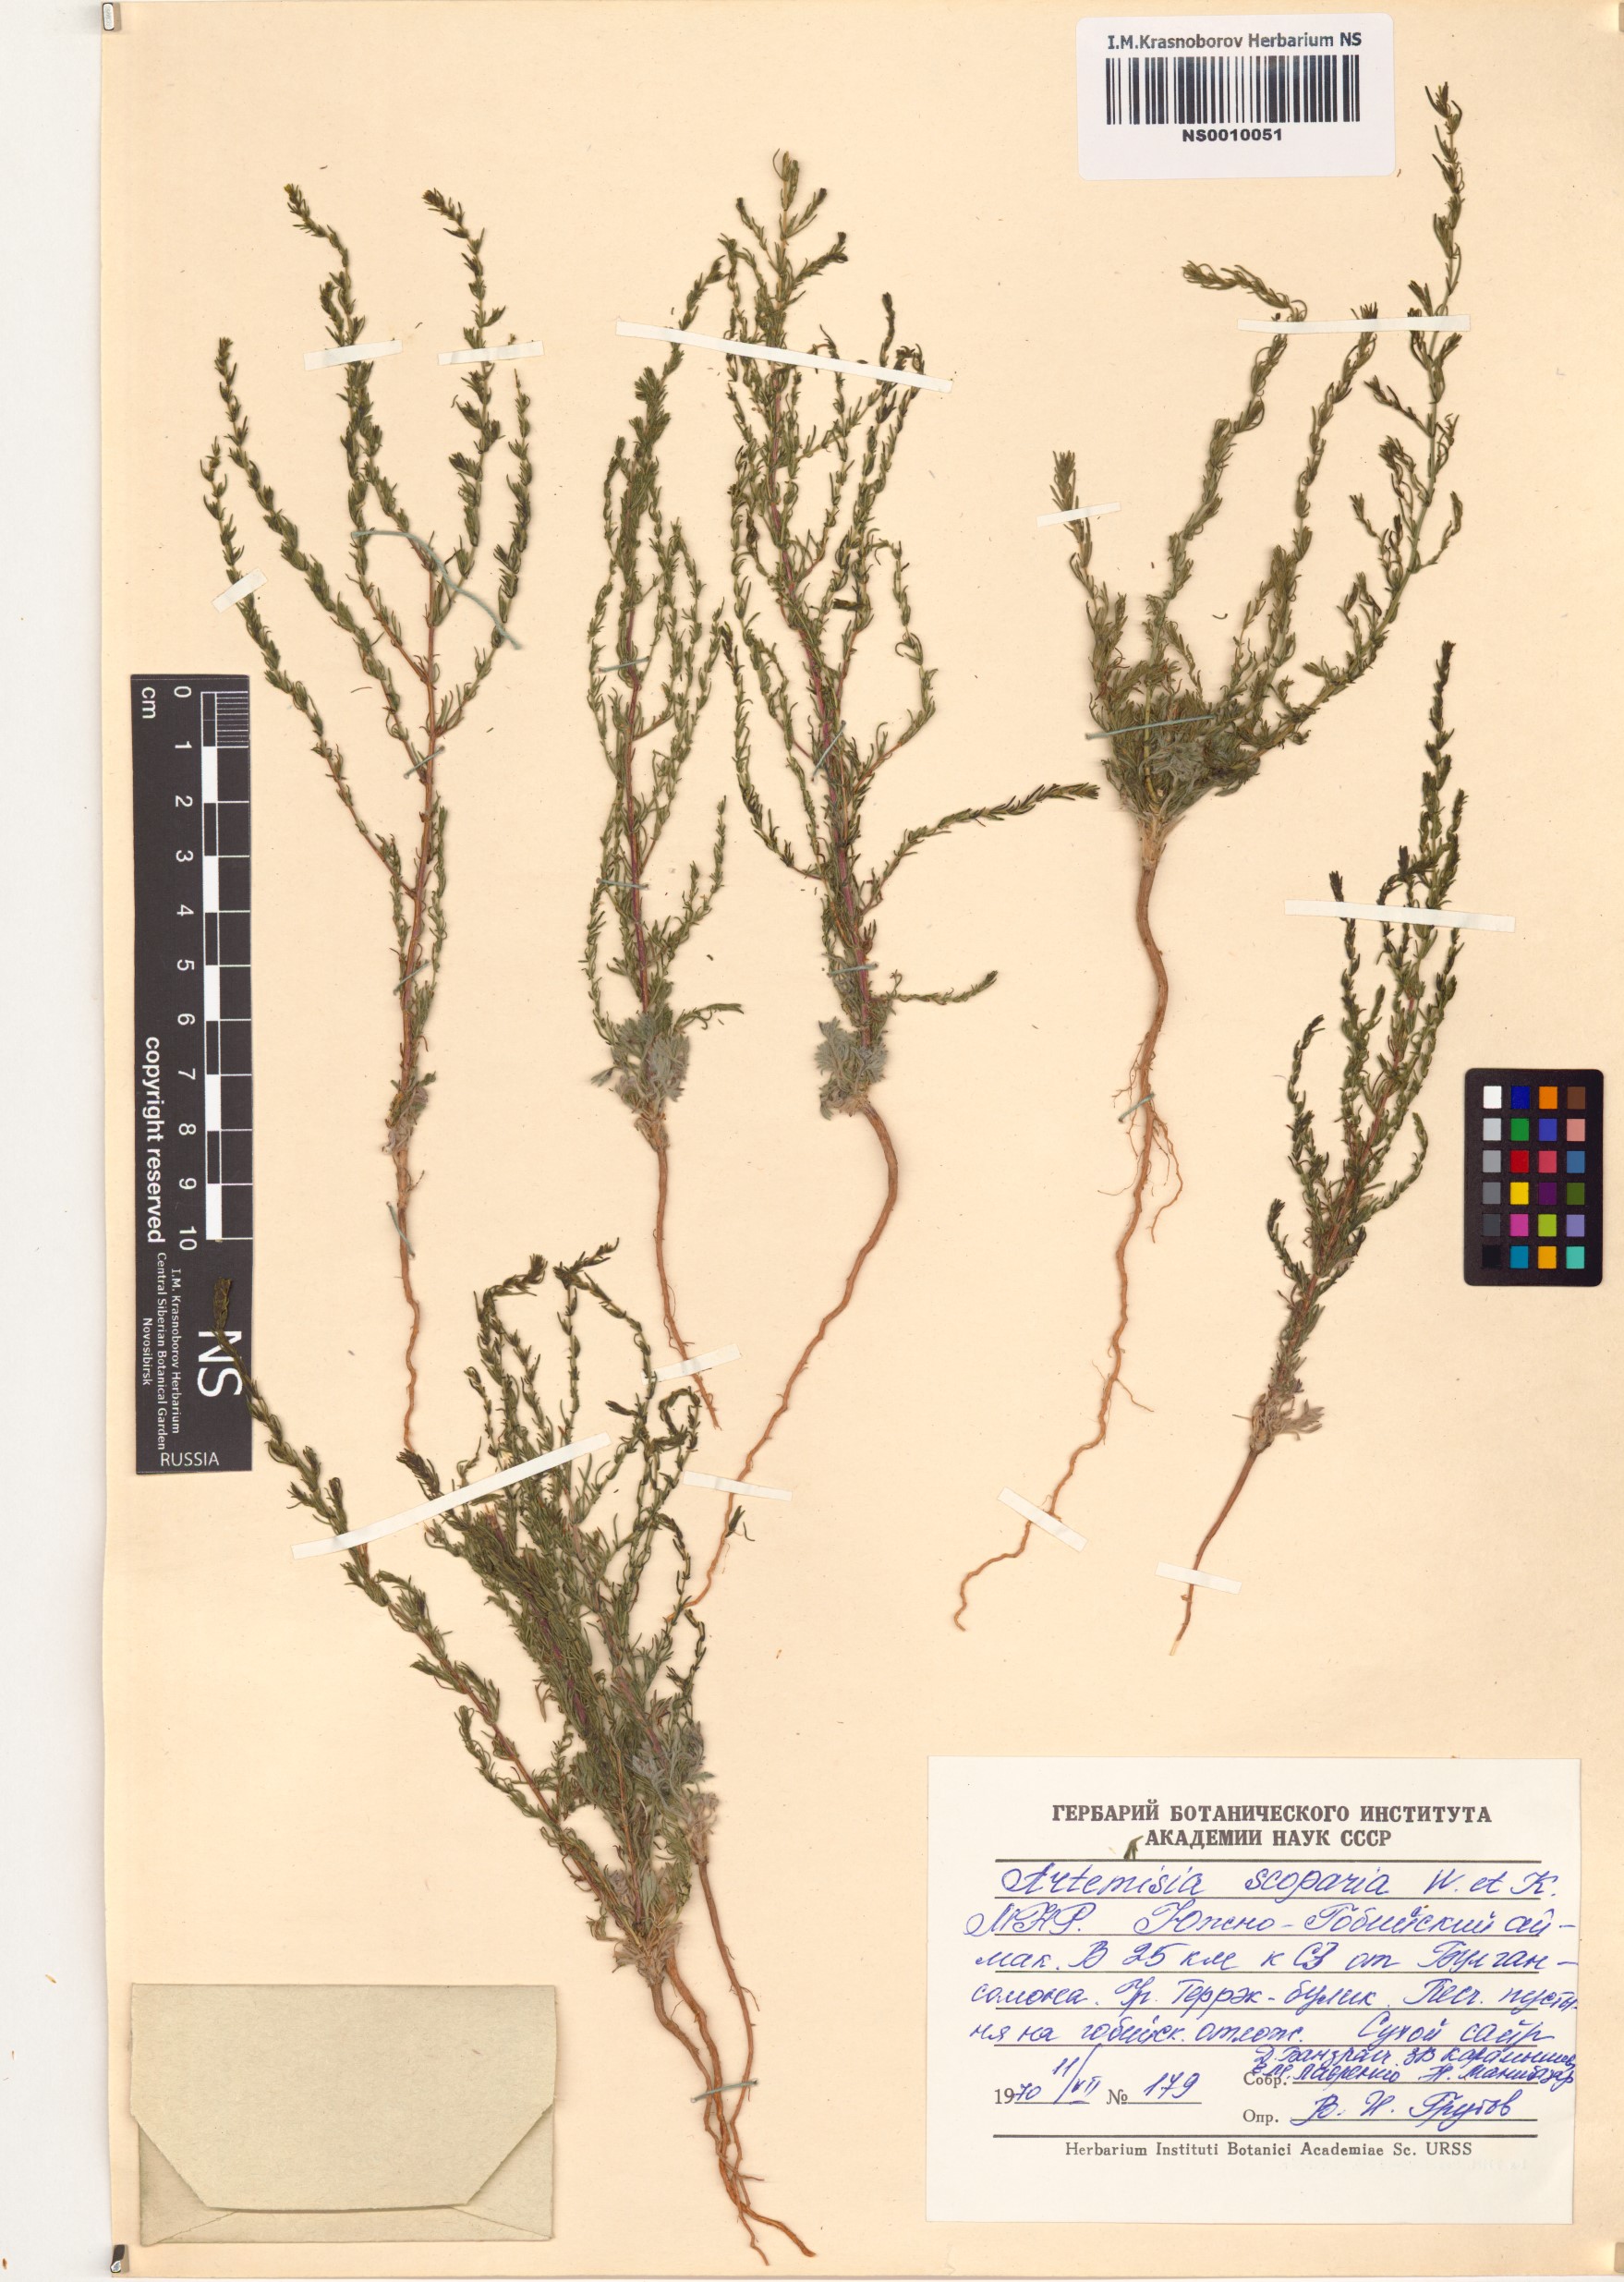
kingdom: Plantae
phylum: Tracheophyta
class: Magnoliopsida
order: Asterales
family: Asteraceae
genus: Artemisia
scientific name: Artemisia scoparia
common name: Redstem wormwood
